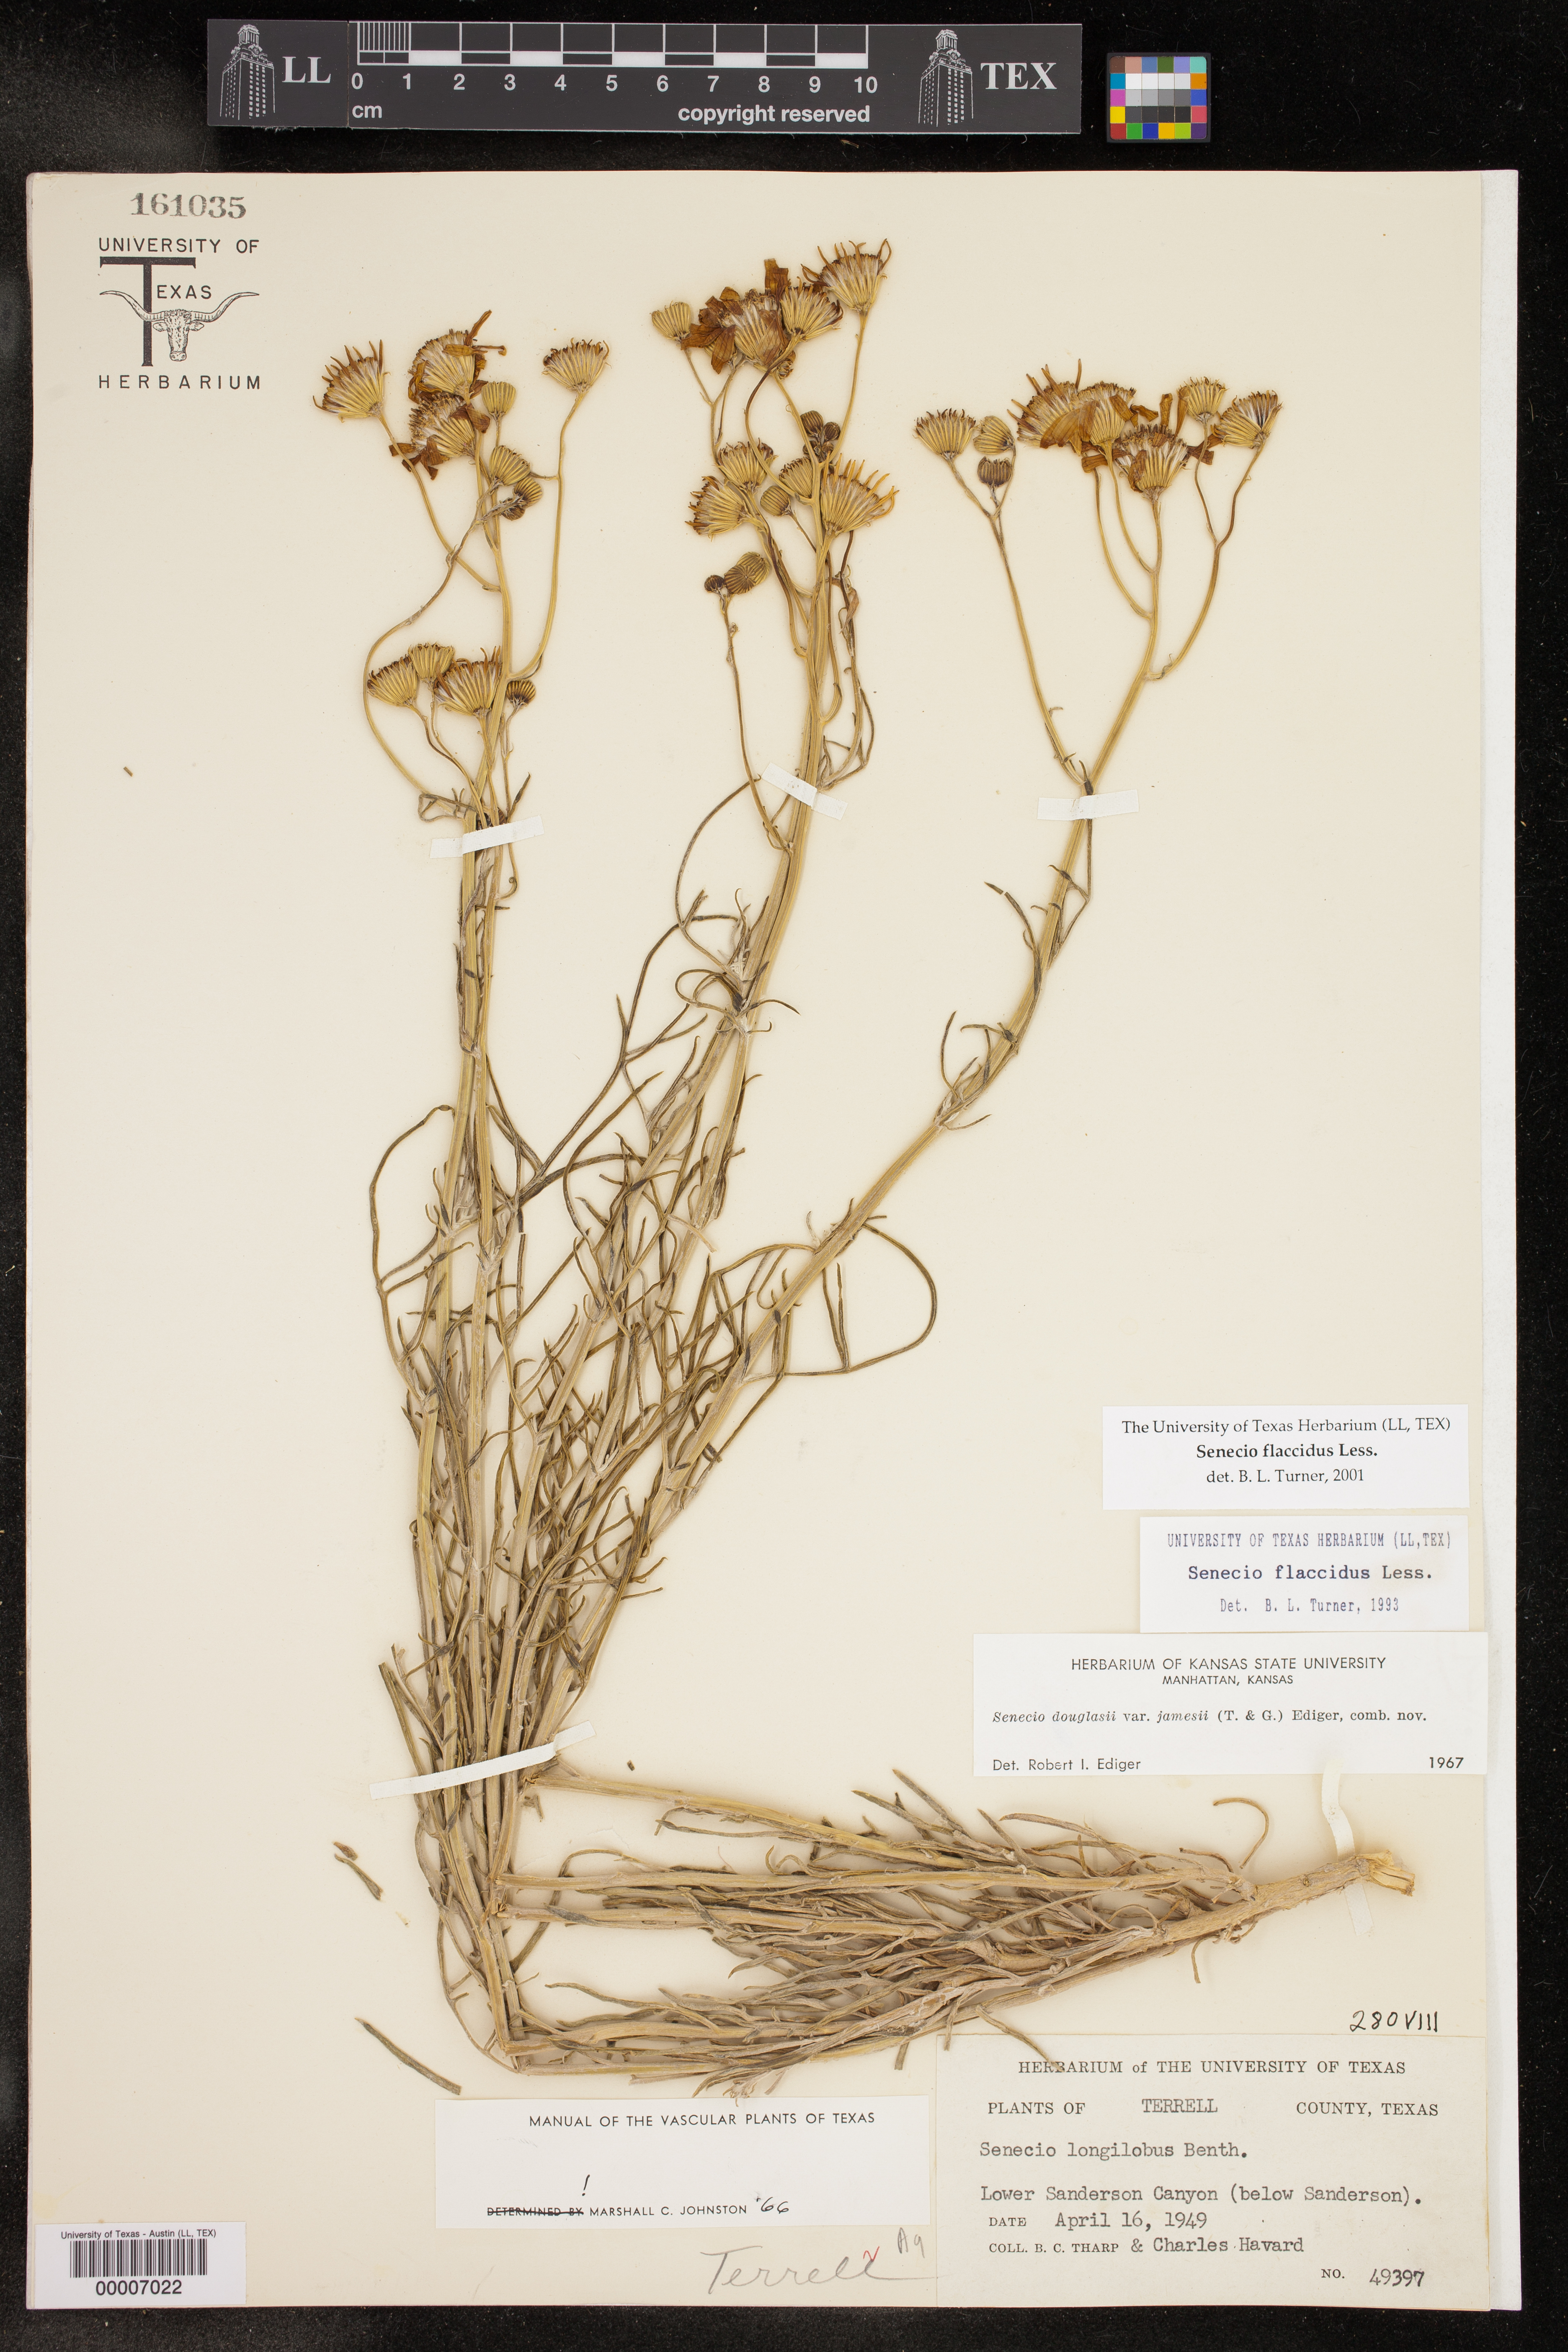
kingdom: Plantae
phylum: Tracheophyta
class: Magnoliopsida
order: Asterales
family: Asteraceae
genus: Senecio
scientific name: Senecio flaccidus
